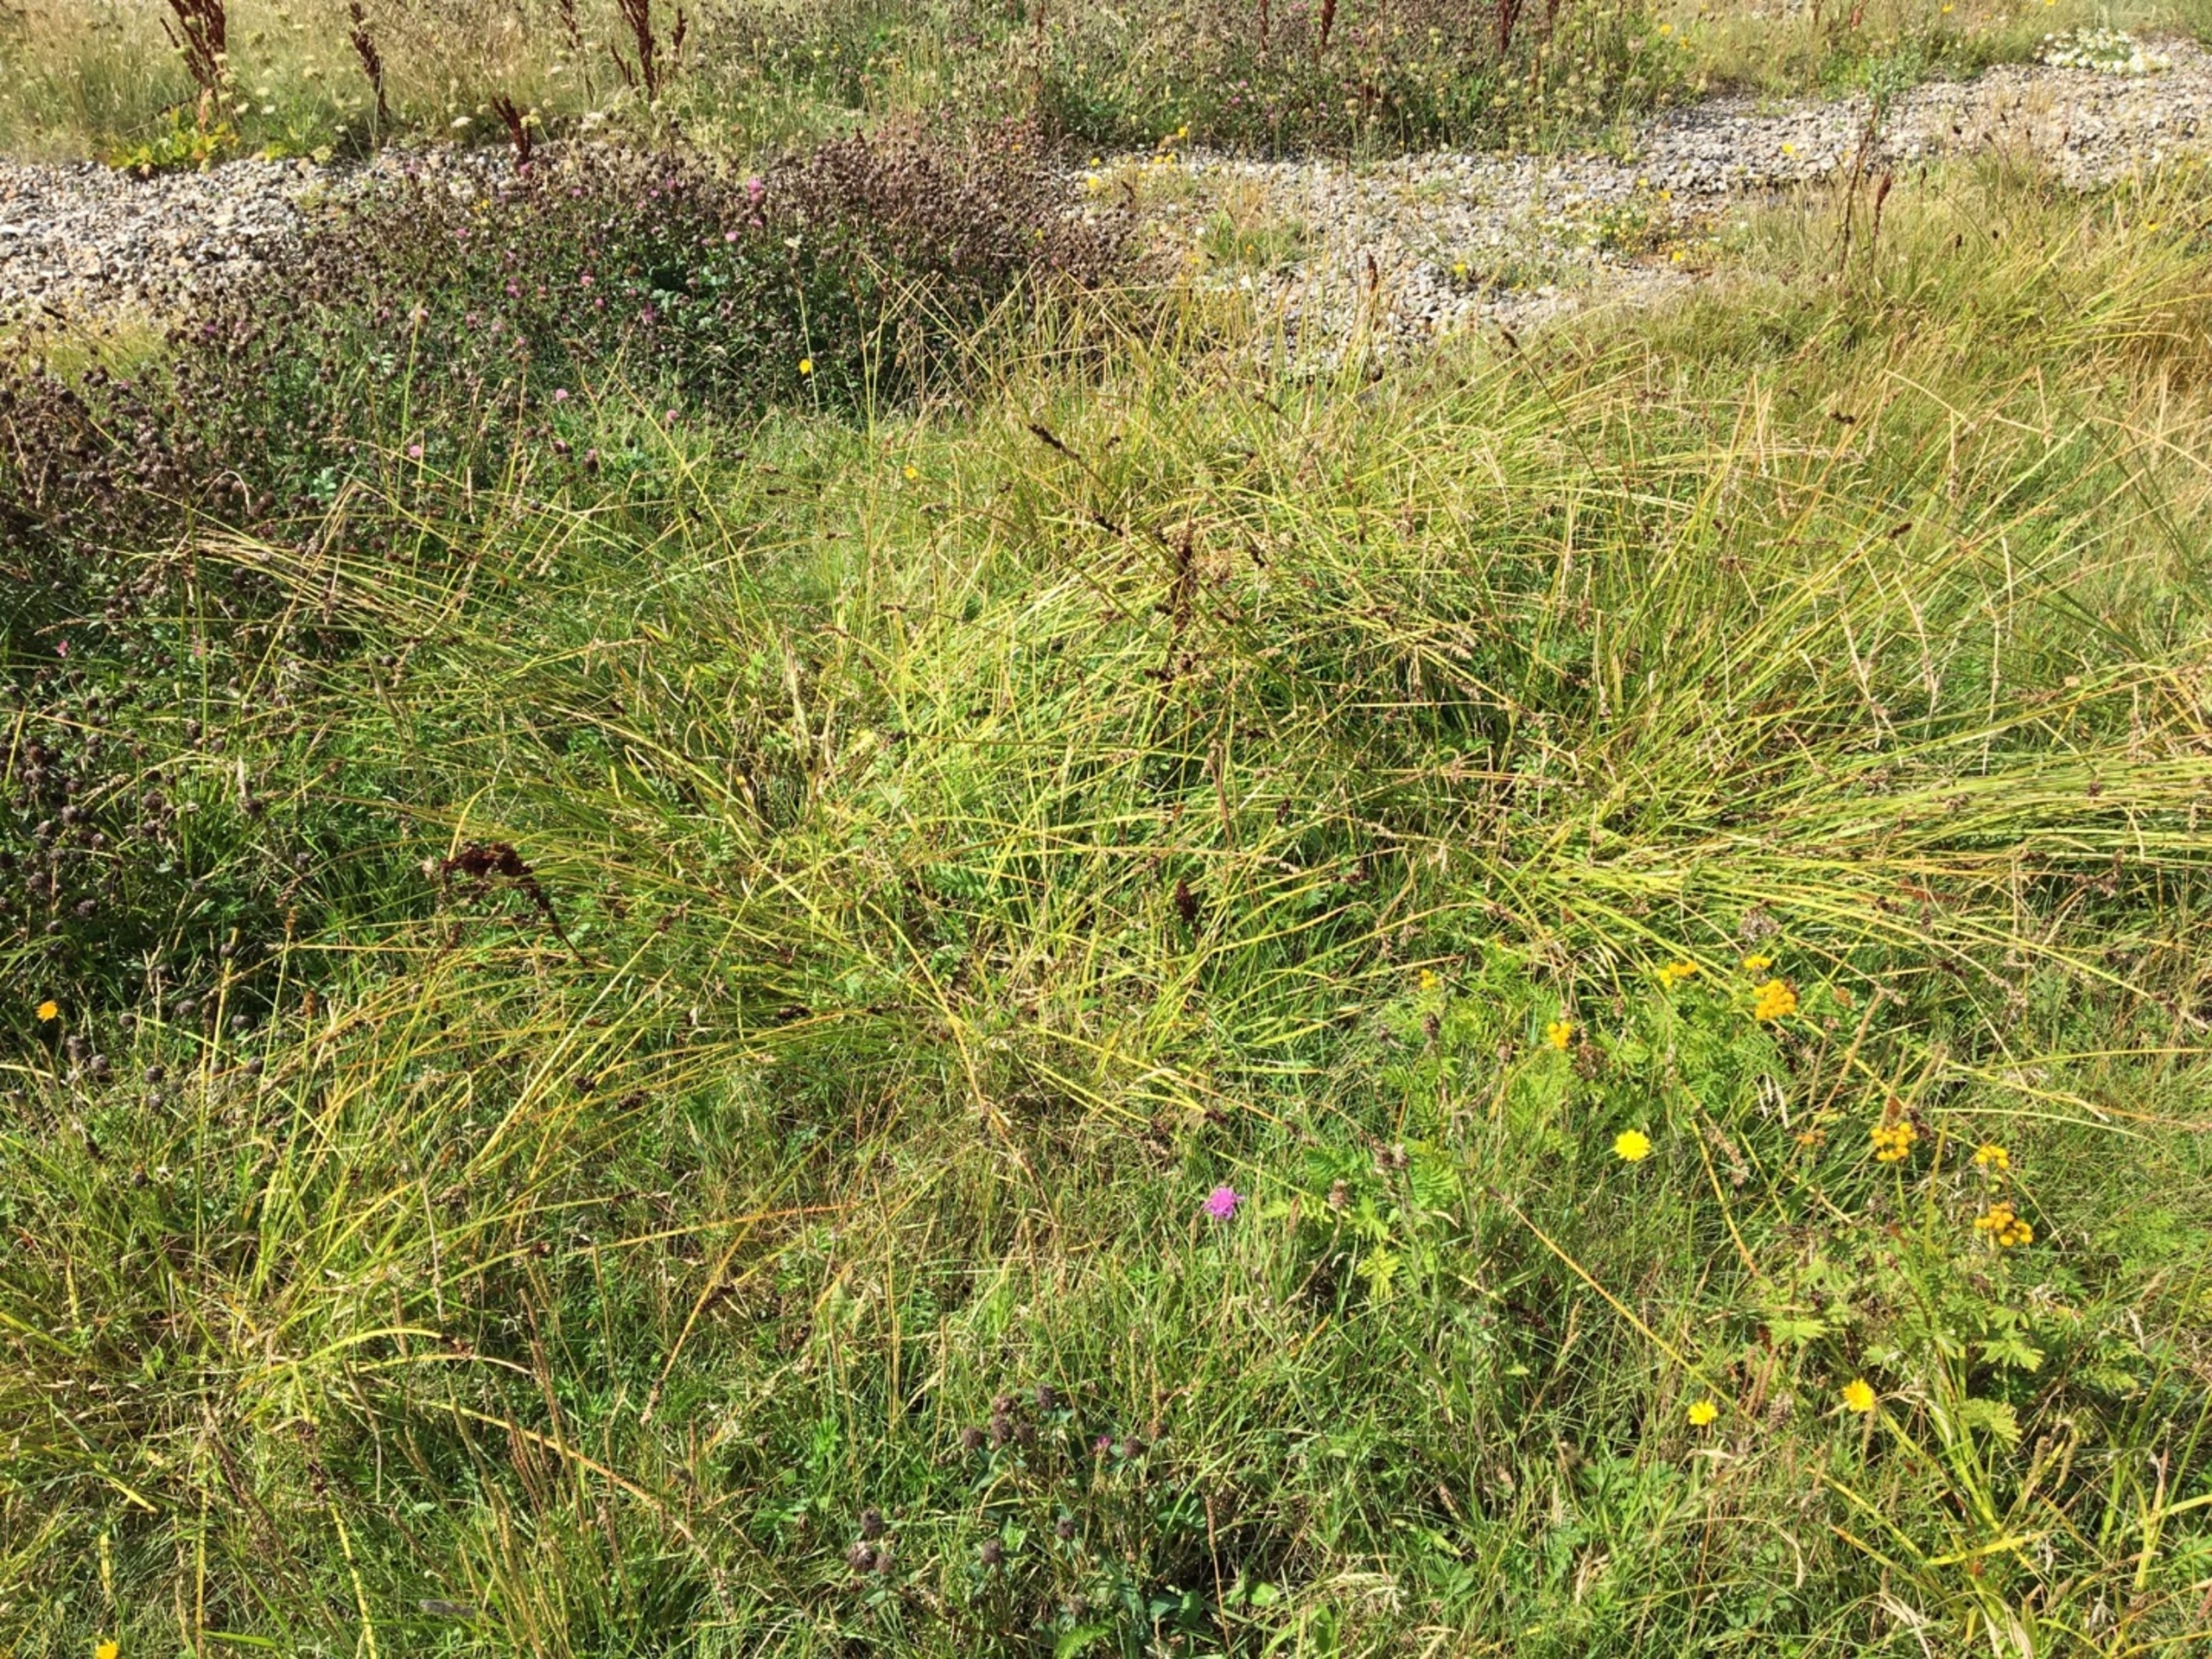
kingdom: Plantae
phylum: Tracheophyta
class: Liliopsida
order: Poales
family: Cyperaceae
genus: Carex
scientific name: Carex otrubae
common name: Sylt-star
